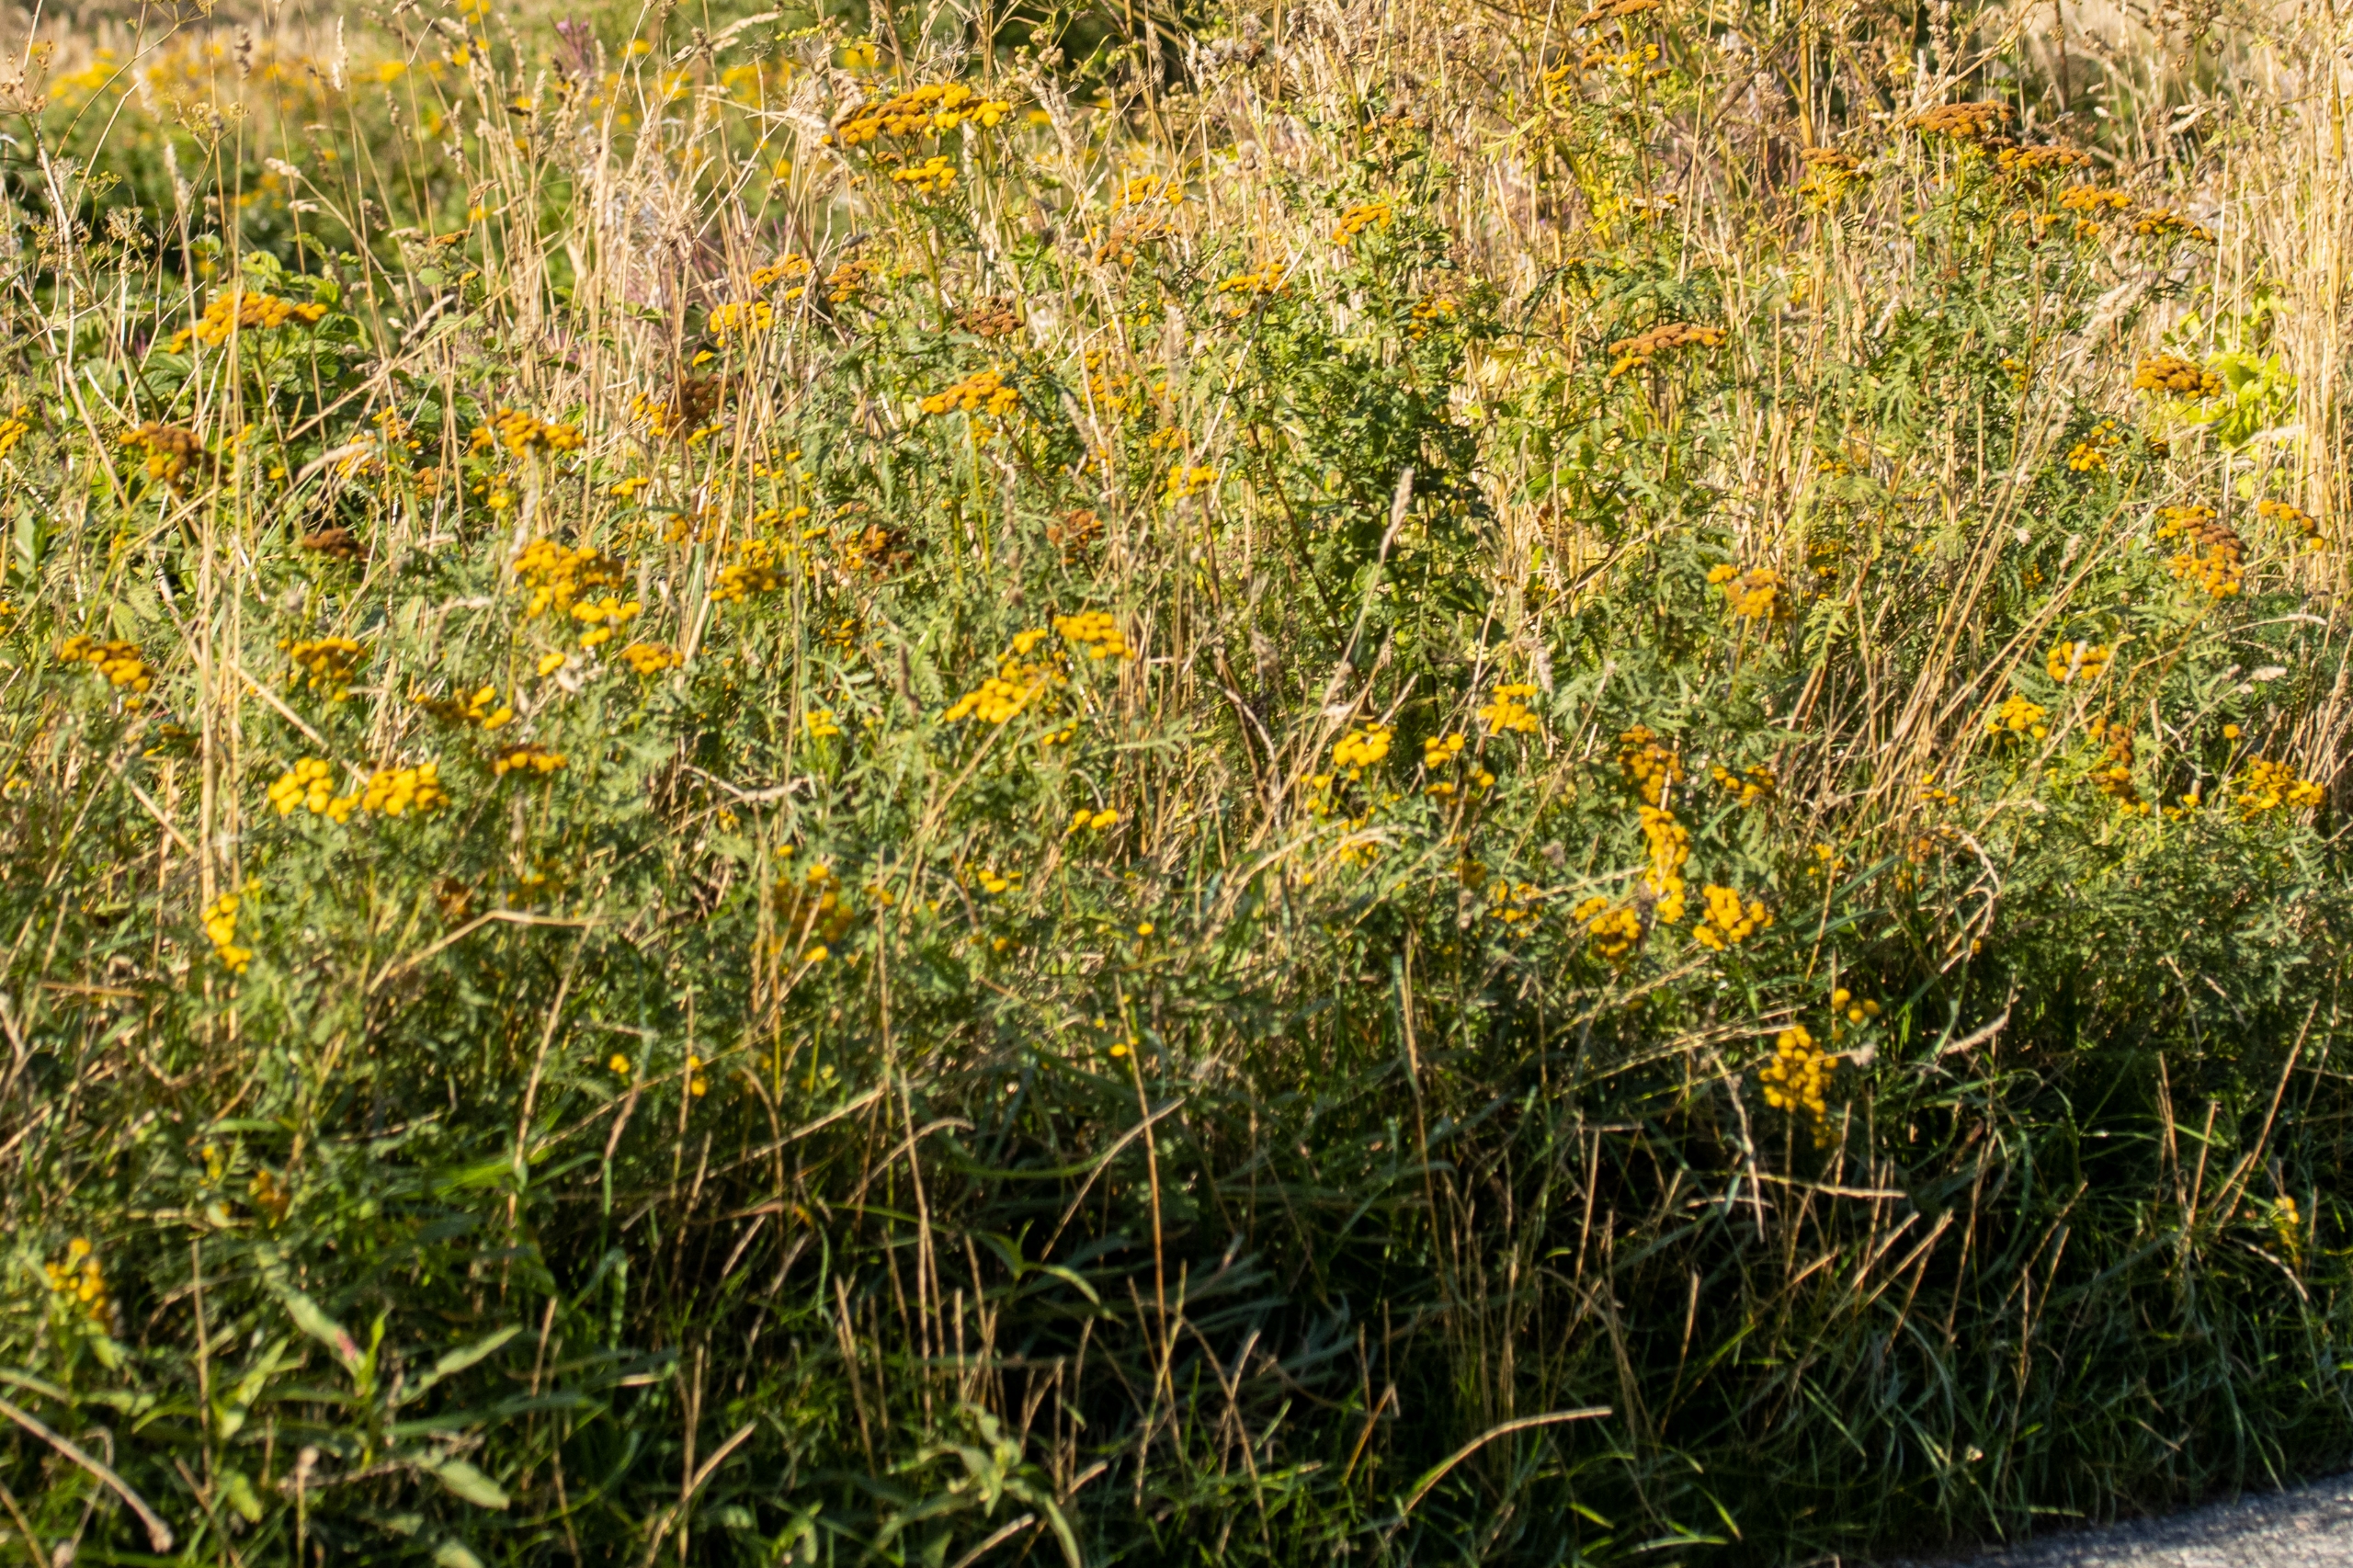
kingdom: Plantae
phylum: Tracheophyta
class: Magnoliopsida
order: Asterales
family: Asteraceae
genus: Tanacetum
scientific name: Tanacetum vulgare
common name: Rejnfan
